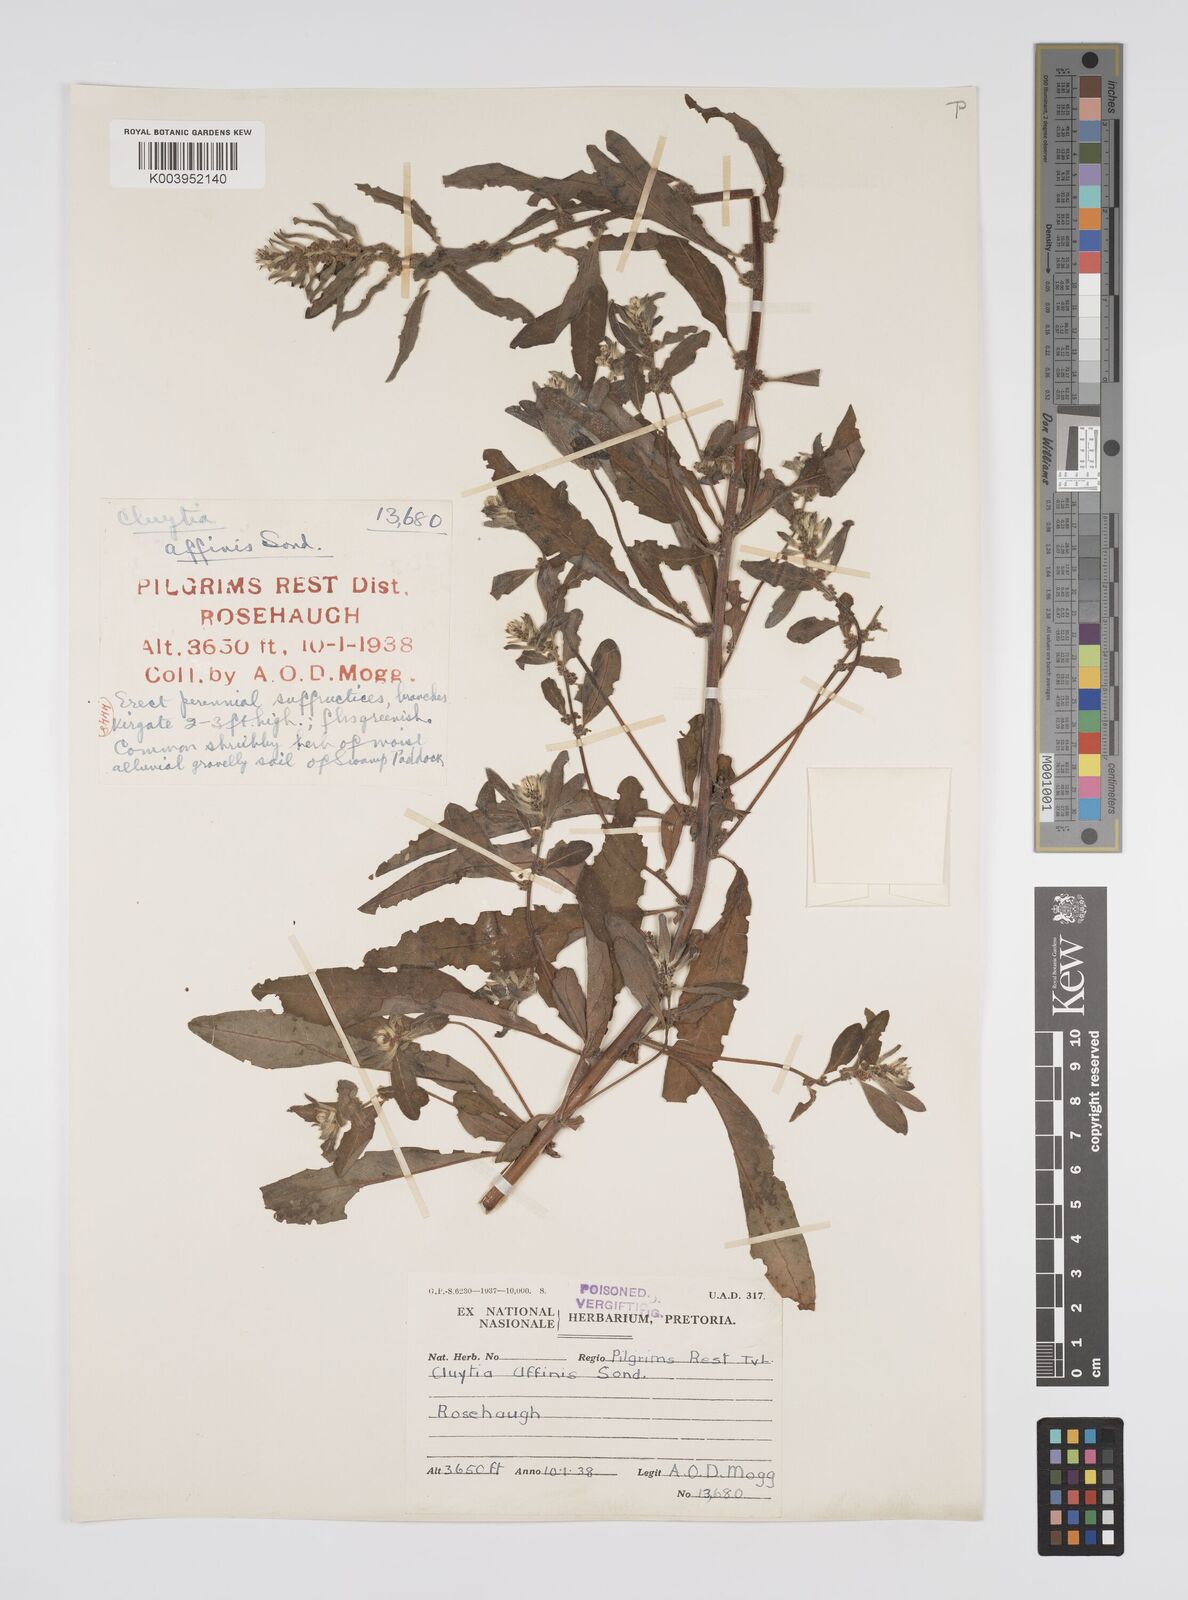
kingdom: Plantae
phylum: Tracheophyta
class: Magnoliopsida
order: Malpighiales
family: Peraceae
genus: Clutia
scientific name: Clutia affinis
